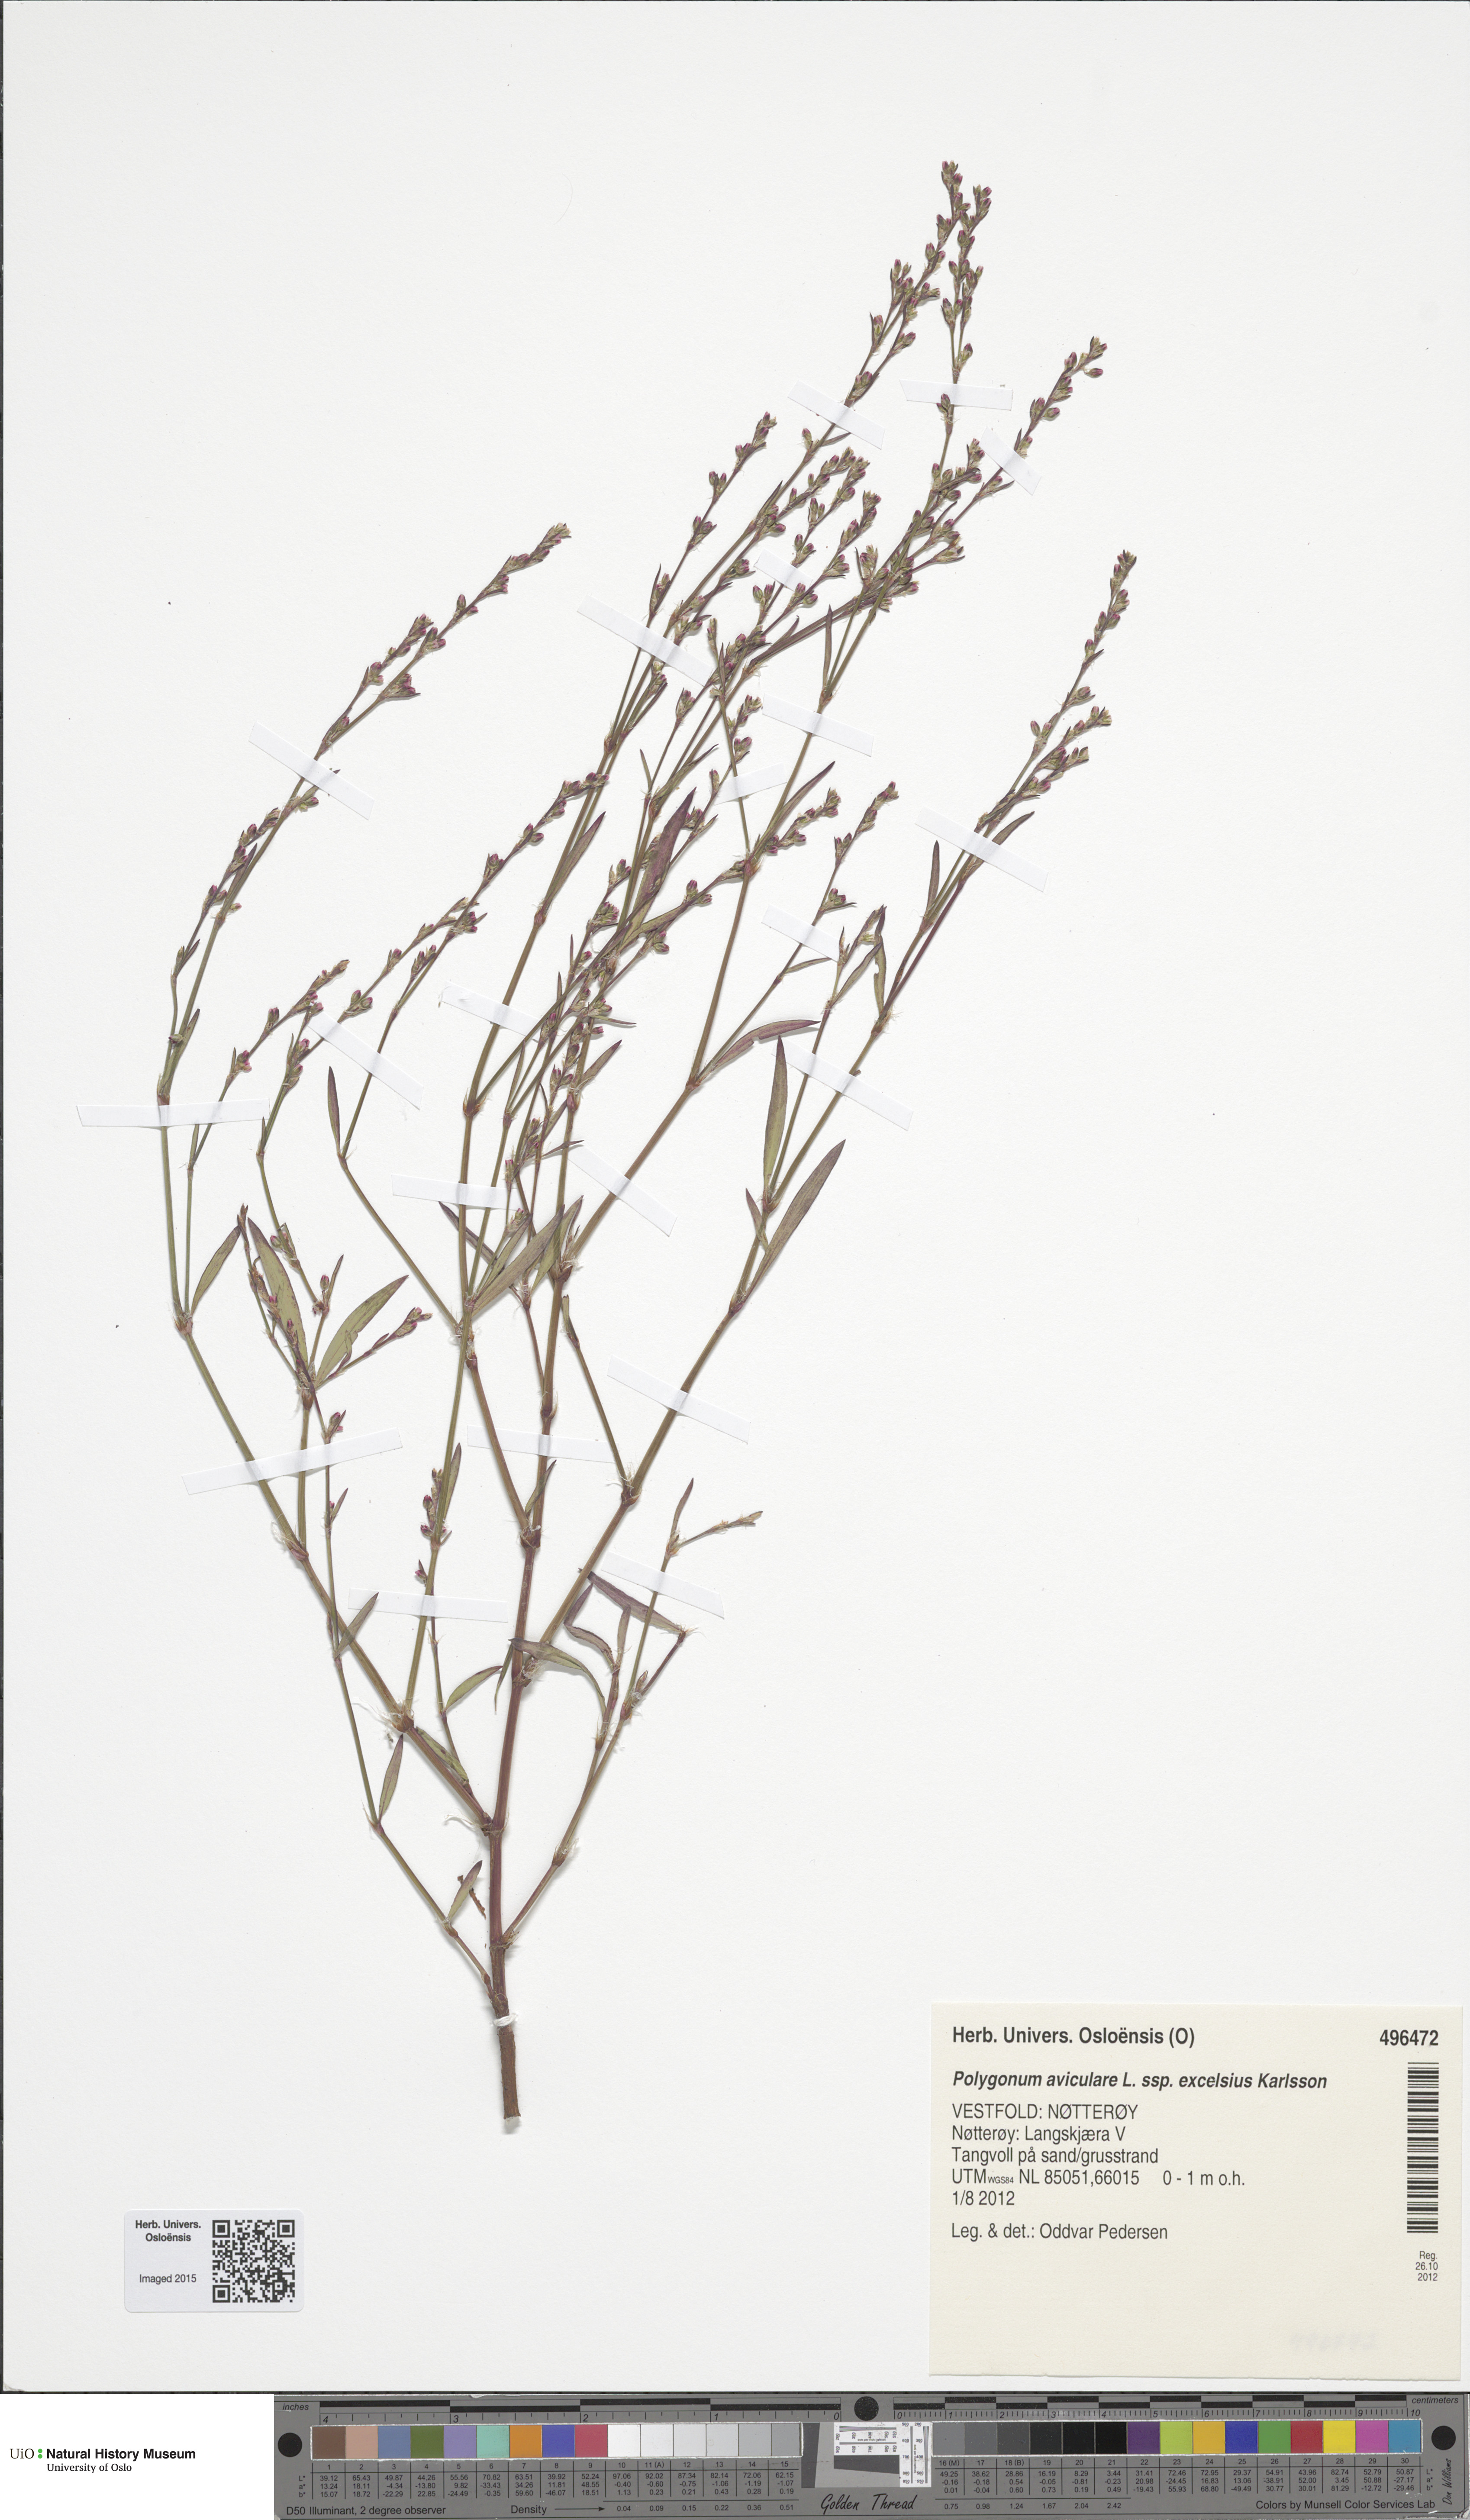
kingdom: Plantae
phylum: Tracheophyta
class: Magnoliopsida
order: Caryophyllales
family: Polygonaceae
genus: Polygonum
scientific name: Polygonum excelsius
